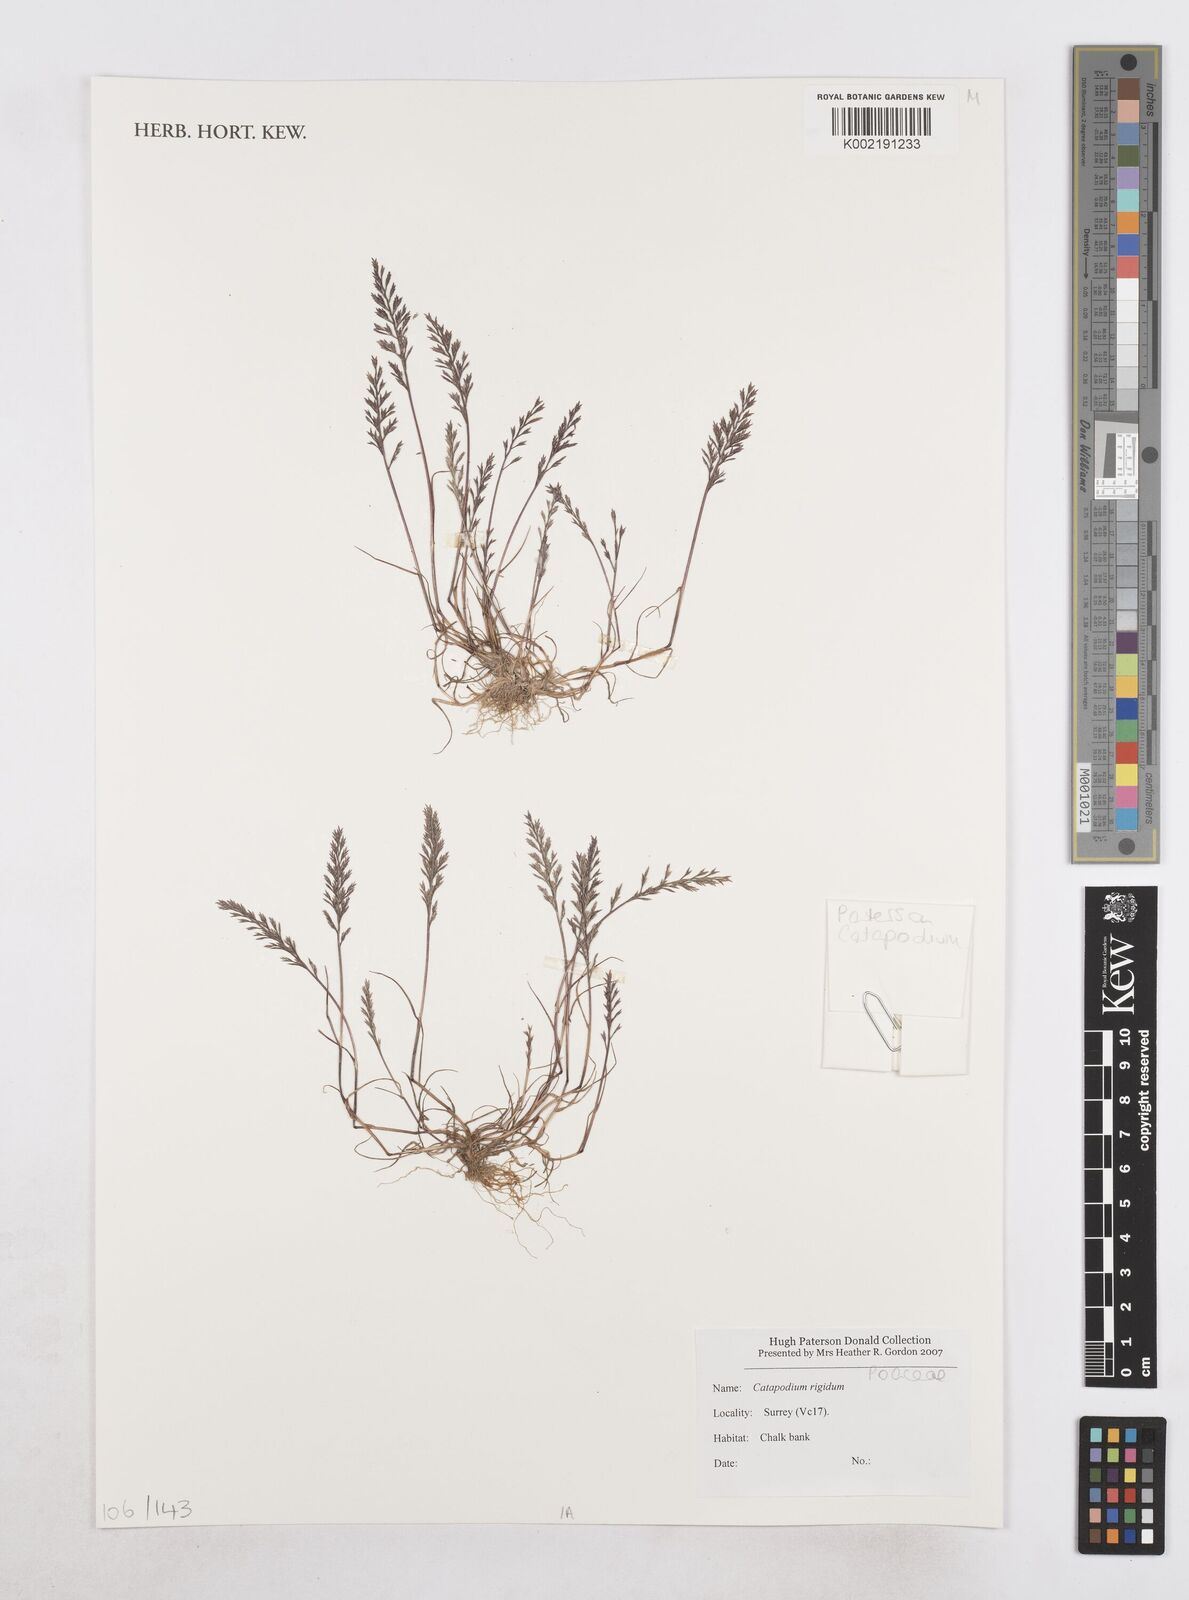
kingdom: Plantae
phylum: Tracheophyta
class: Liliopsida
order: Poales
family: Poaceae
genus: Catapodium
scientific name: Catapodium rigidum
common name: Fern-grass
